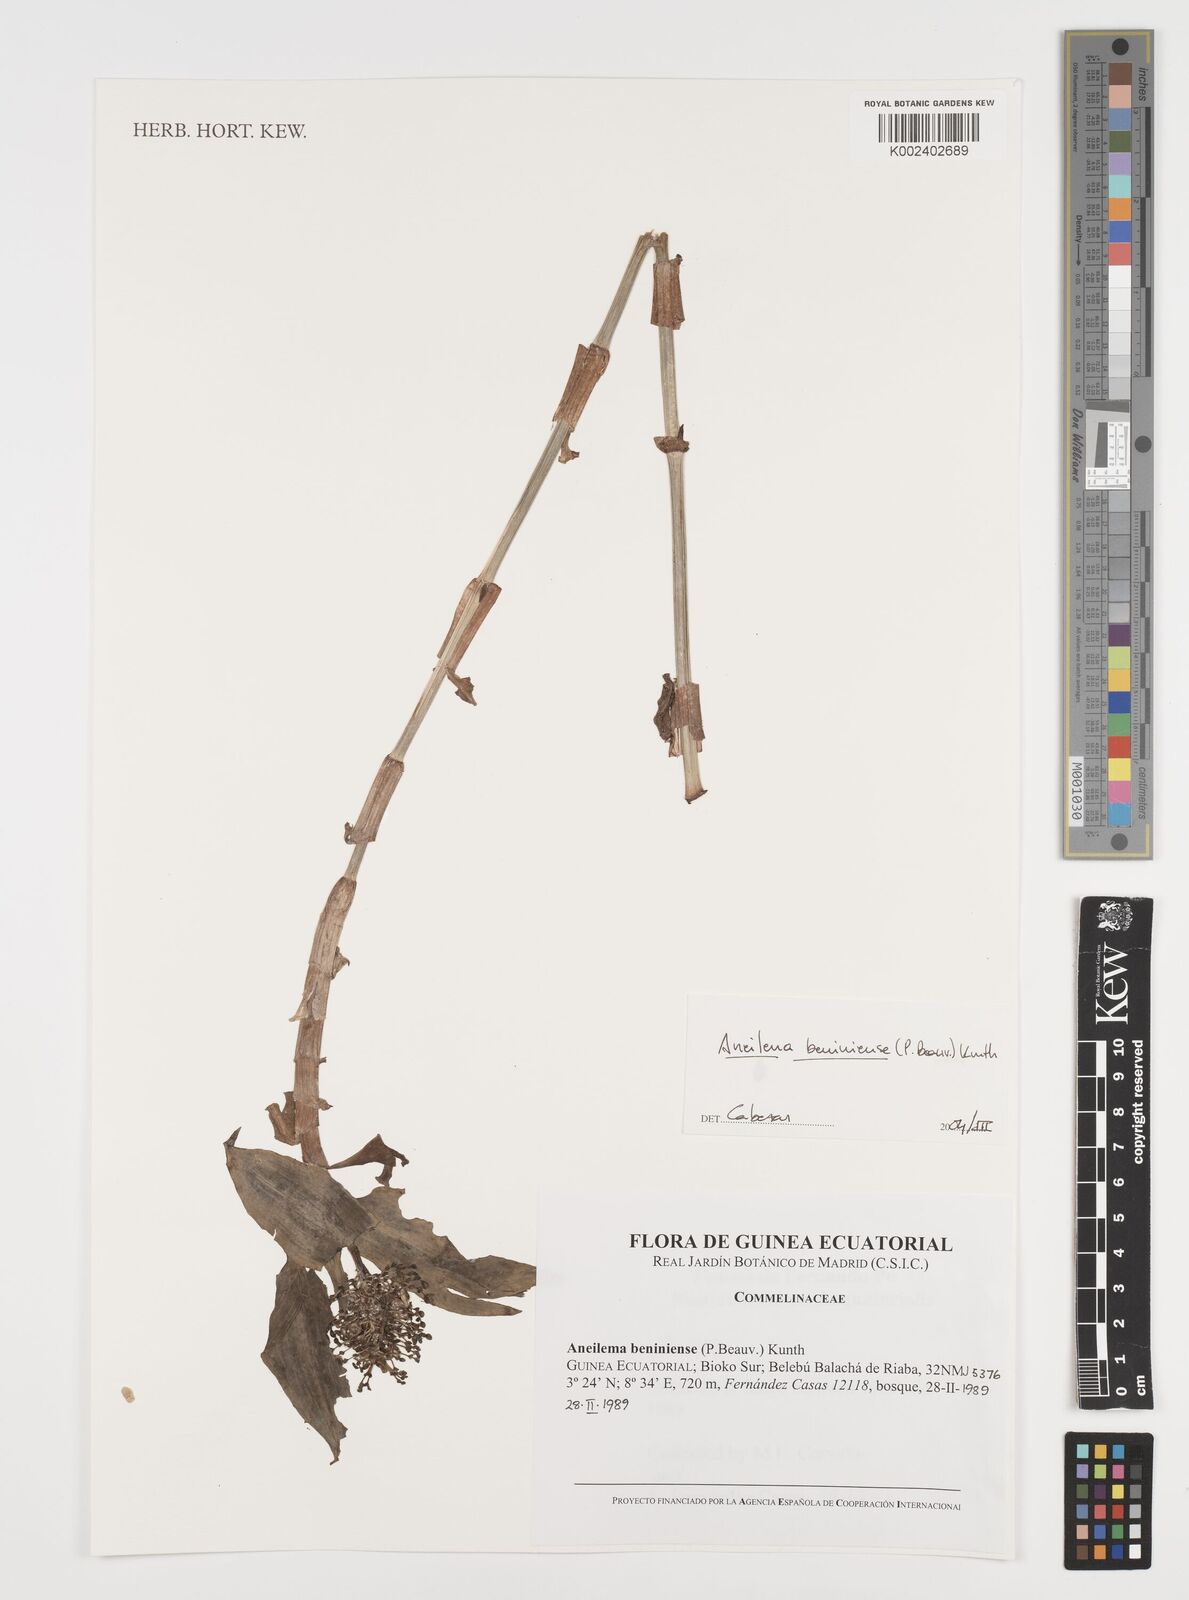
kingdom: Plantae
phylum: Tracheophyta
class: Liliopsida
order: Commelinales
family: Commelinaceae
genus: Aneilema
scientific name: Aneilema beniniense
